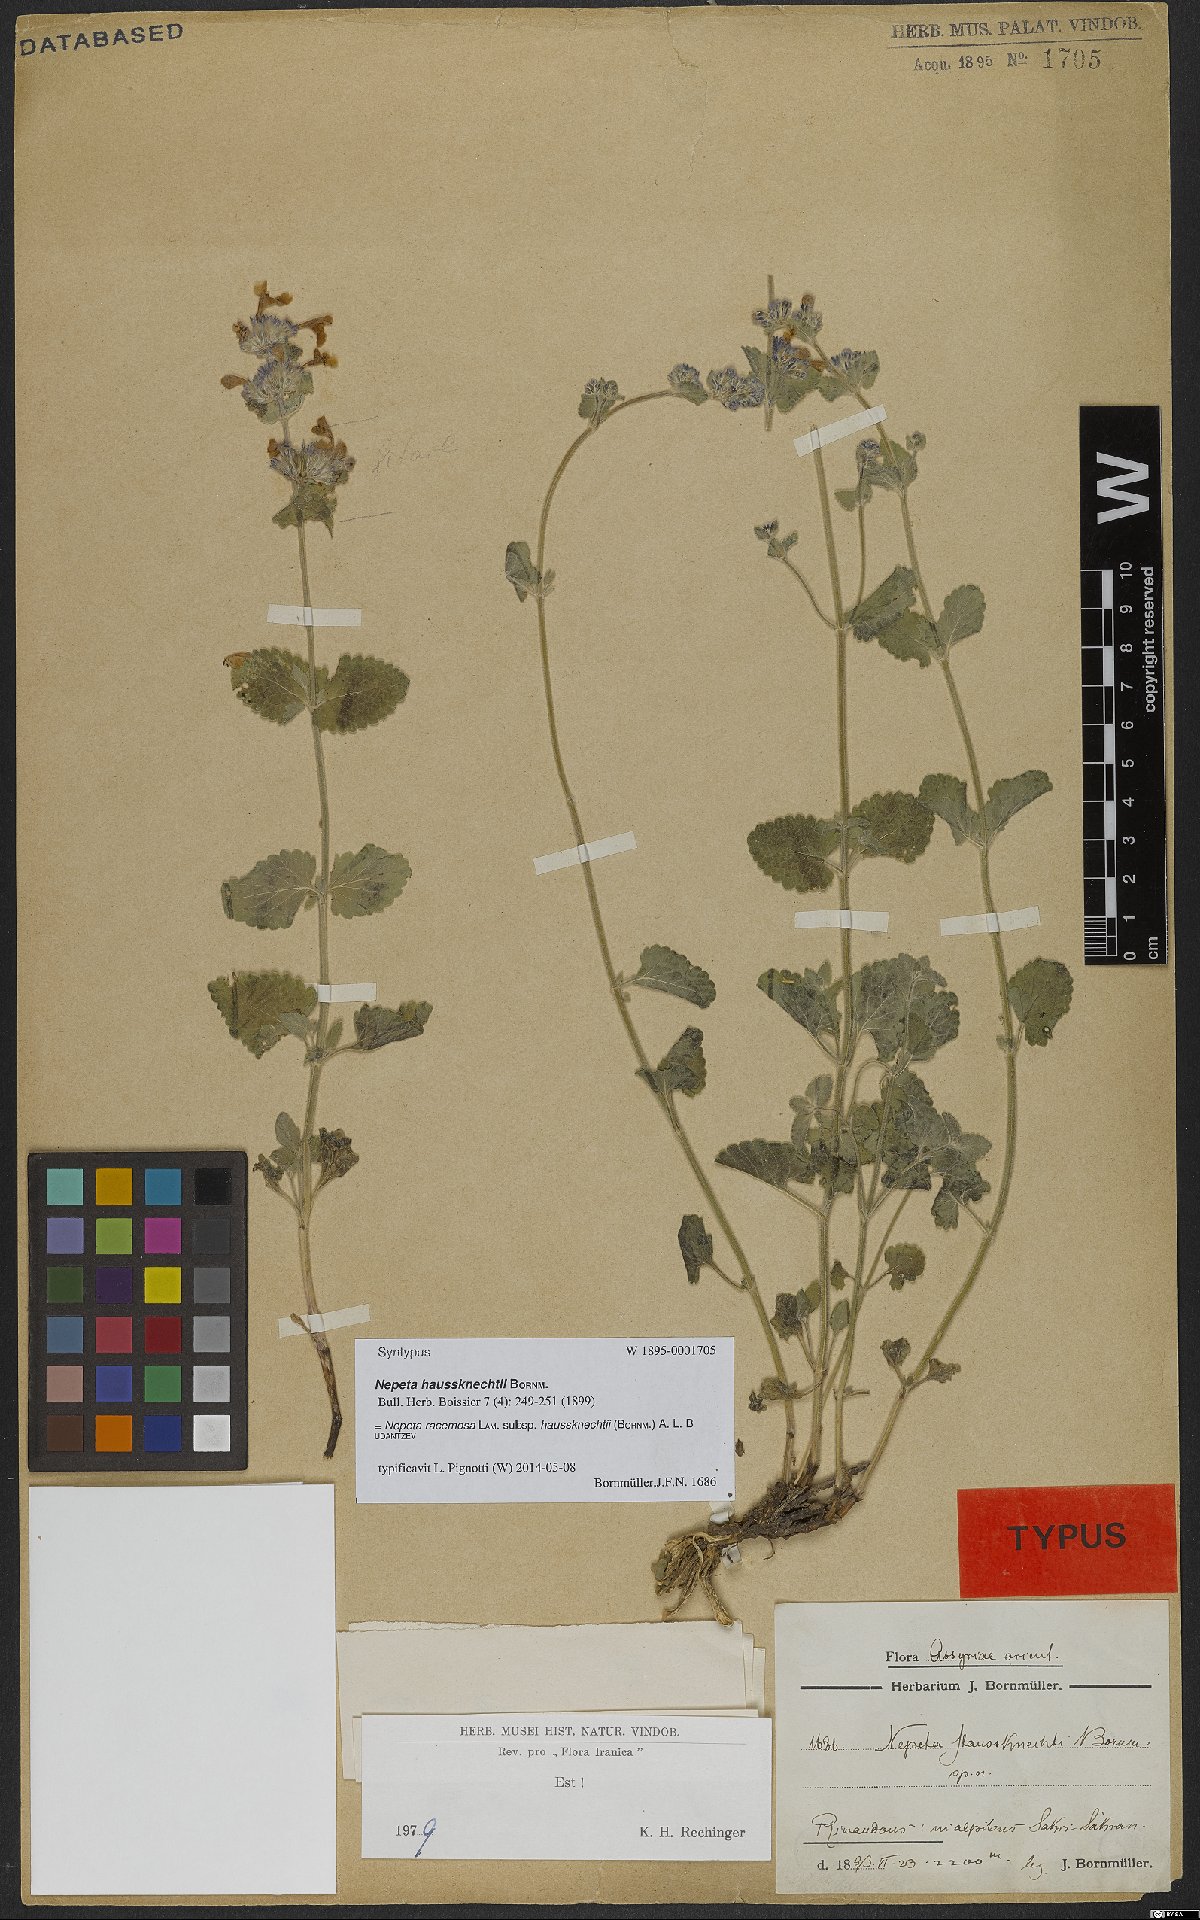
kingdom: Plantae
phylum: Tracheophyta
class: Magnoliopsida
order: Lamiales
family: Lamiaceae
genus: Nepeta
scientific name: Nepeta racemosa
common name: Raceme catnip
